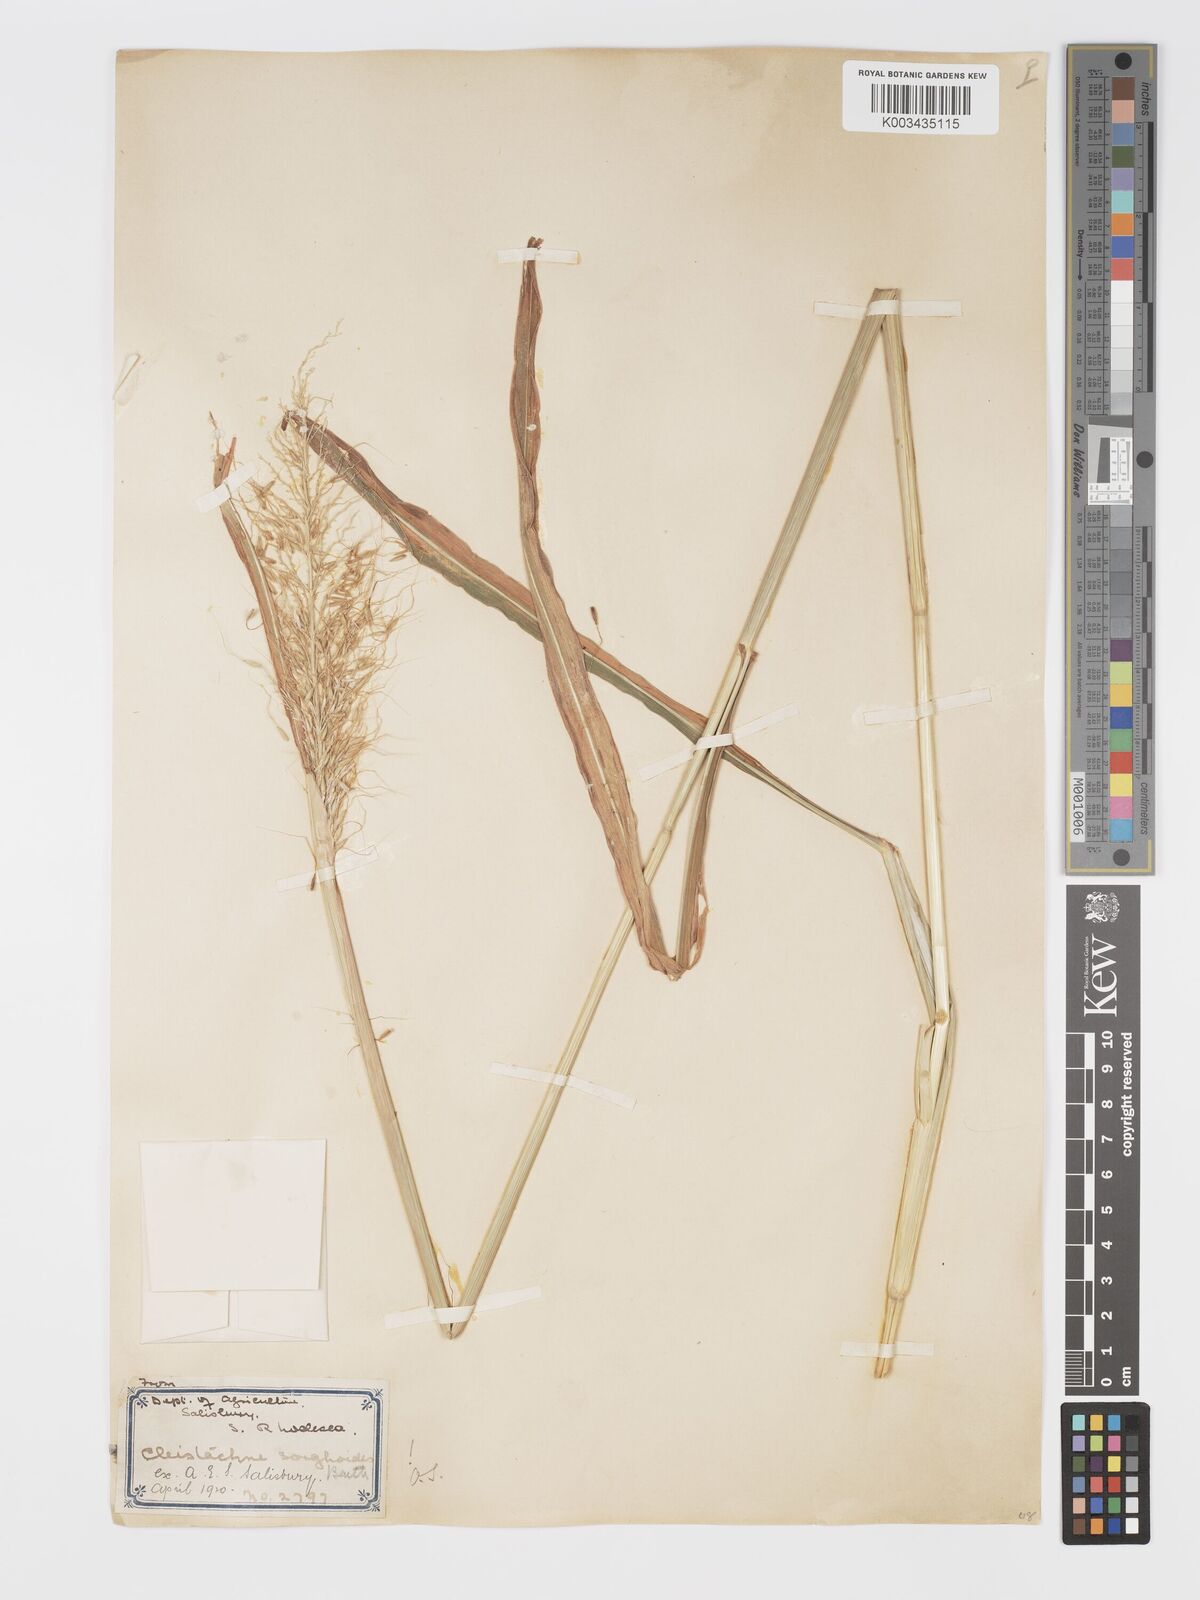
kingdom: Plantae
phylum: Tracheophyta
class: Liliopsida
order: Poales
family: Poaceae
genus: Cleistachne
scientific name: Cleistachne sorghoides
